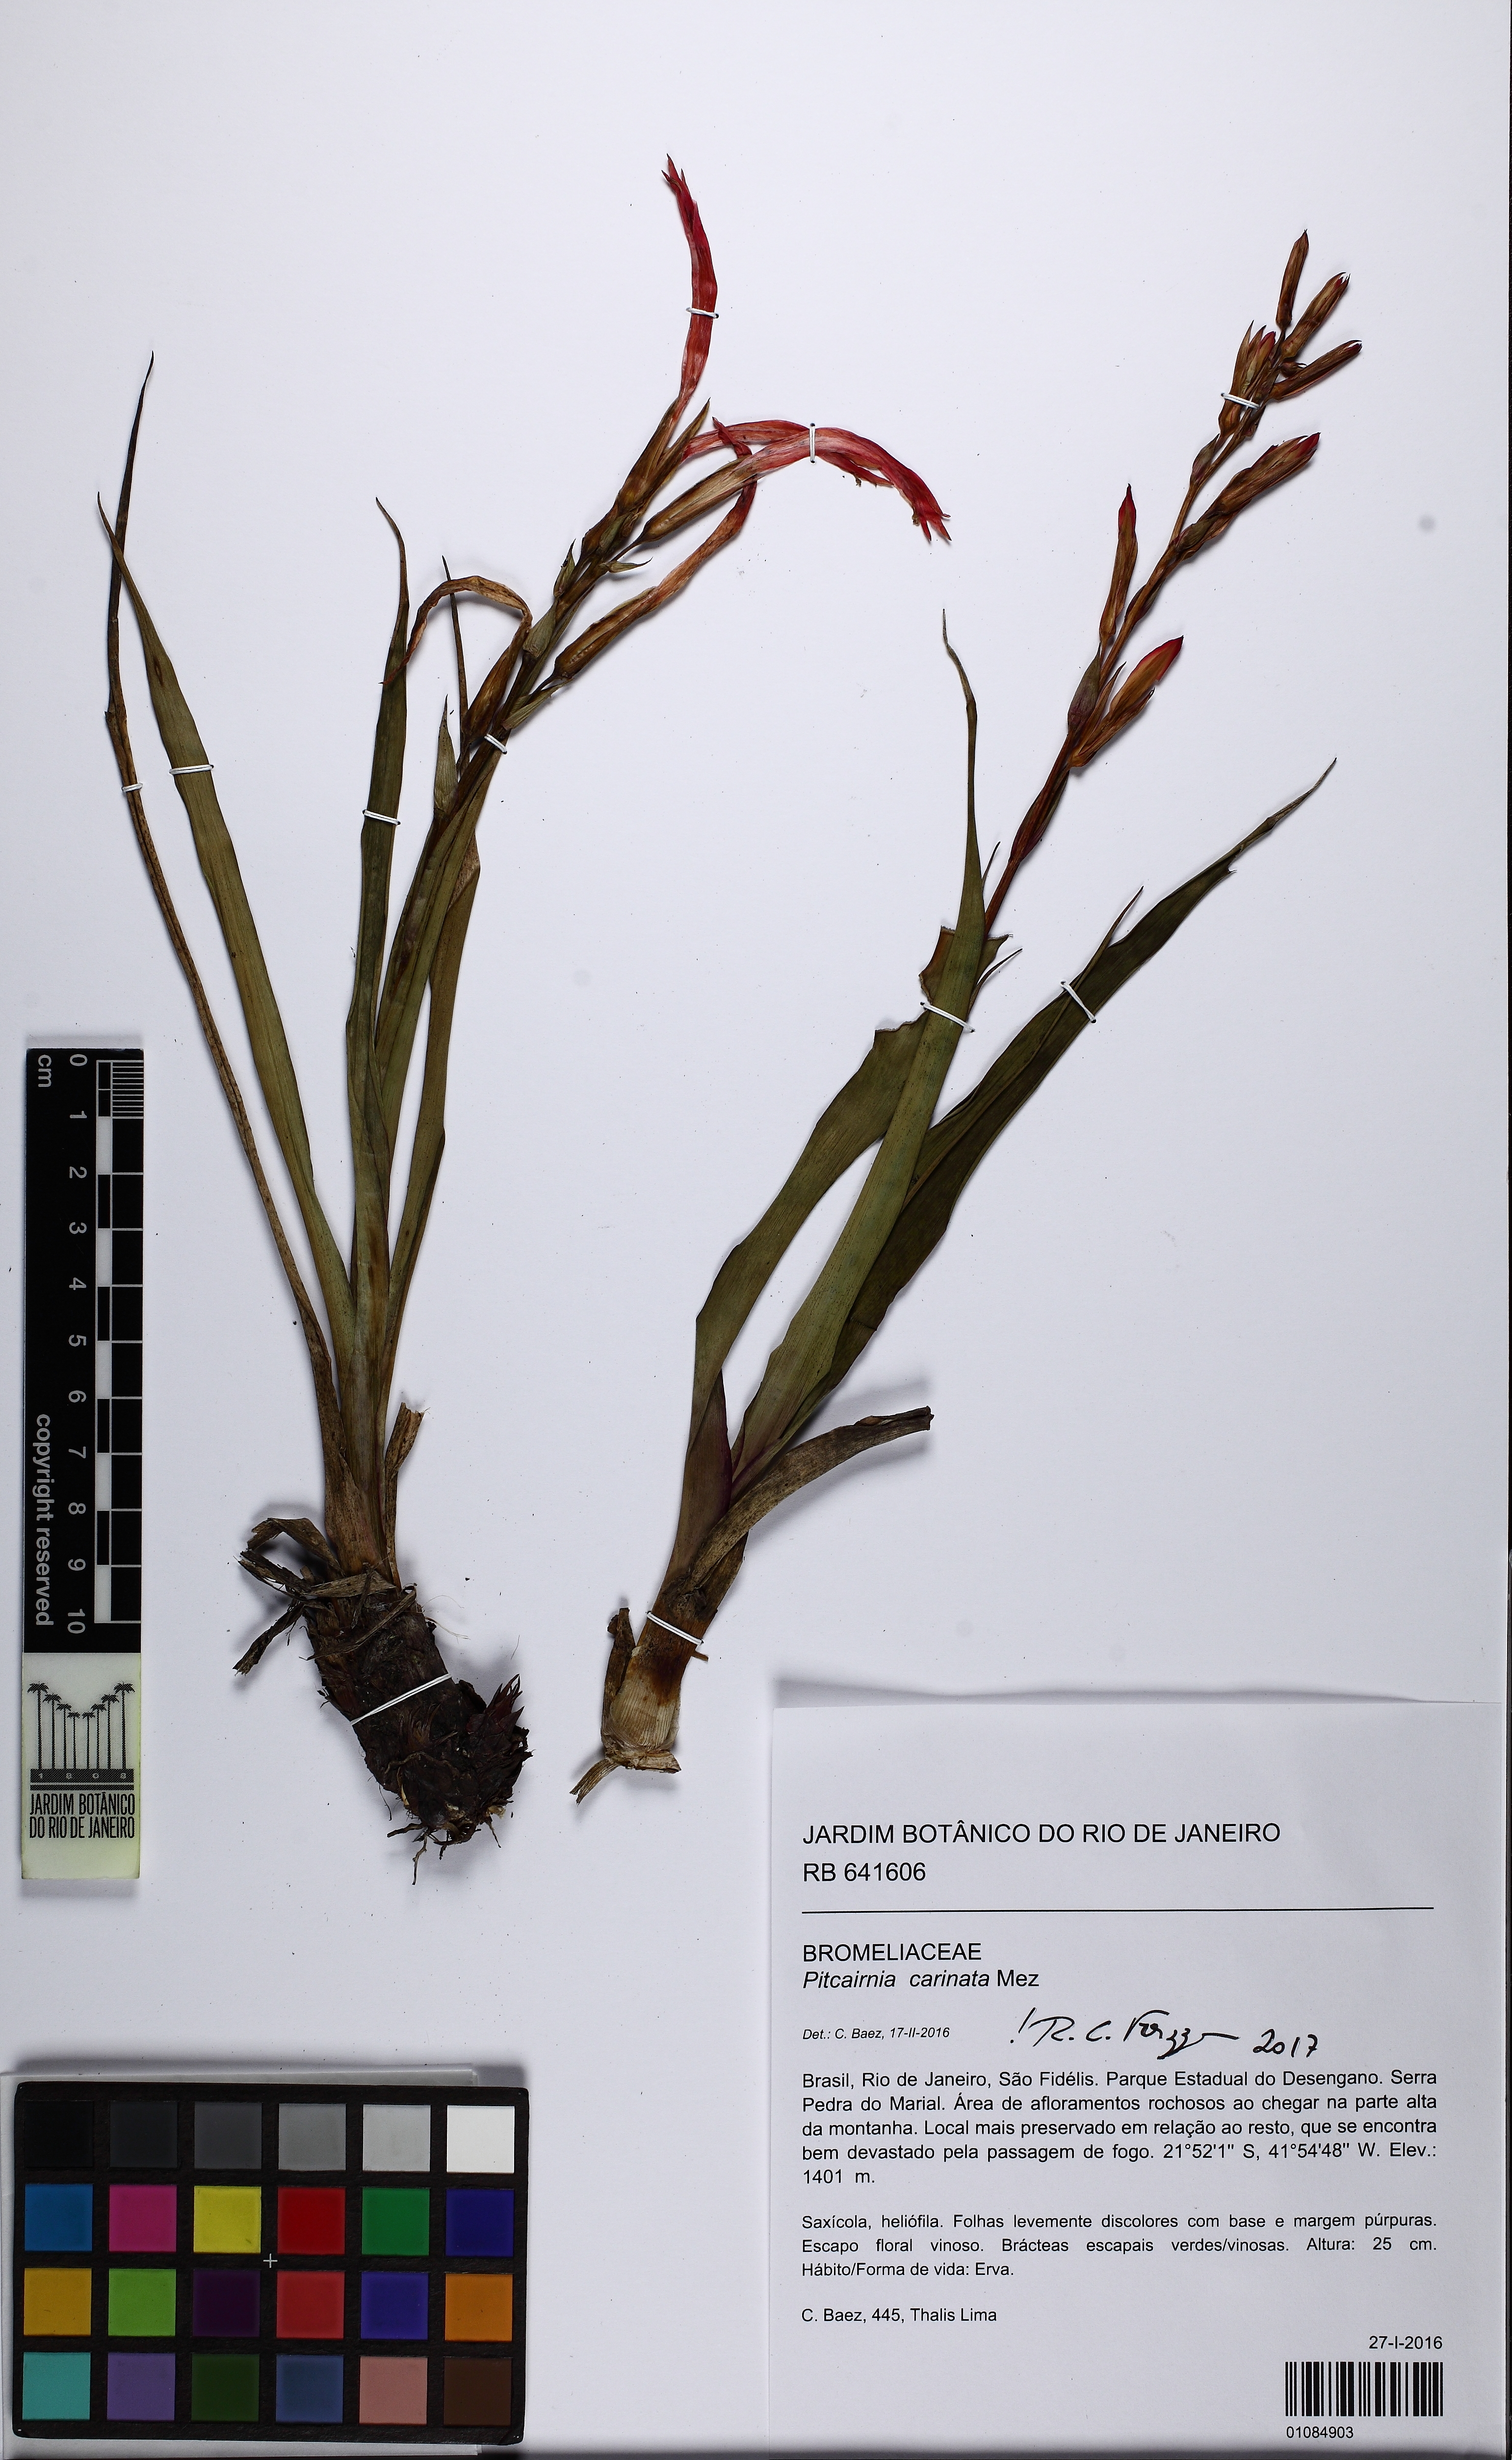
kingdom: Plantae
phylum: Tracheophyta
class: Liliopsida
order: Poales
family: Bromeliaceae
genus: Pitcairnia
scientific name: Pitcairnia carinata
